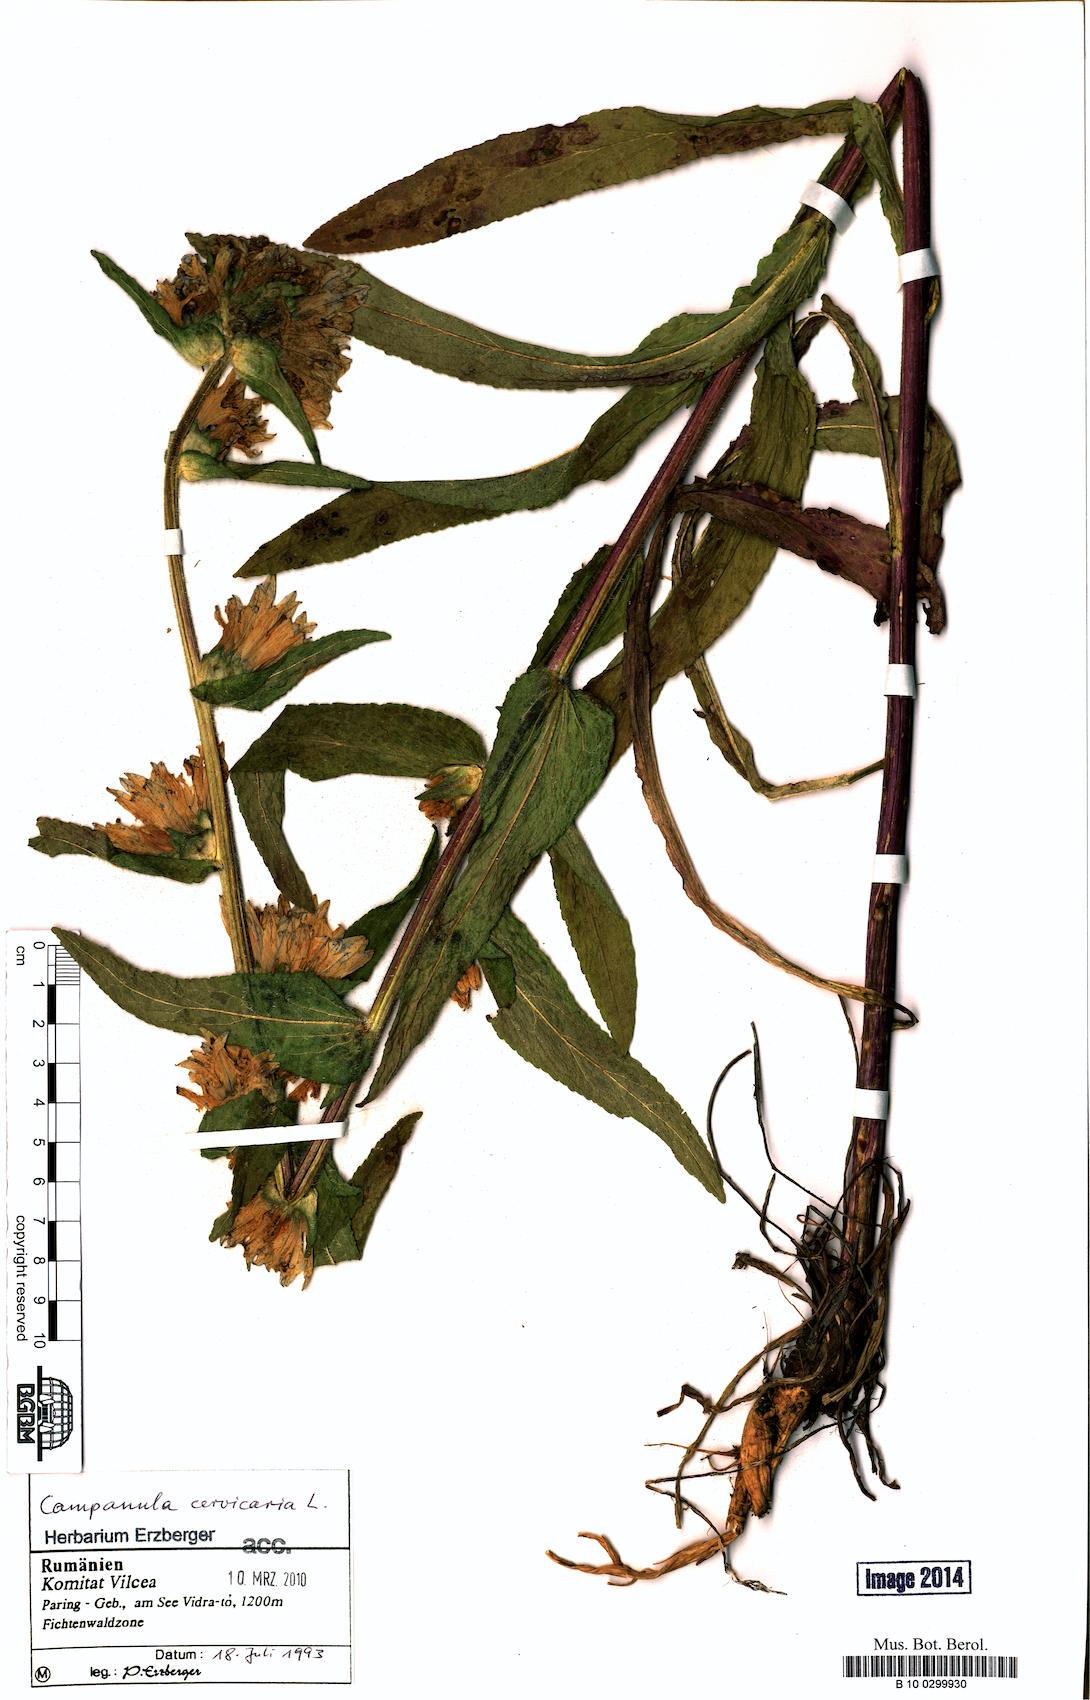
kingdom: Plantae
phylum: Tracheophyta
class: Magnoliopsida
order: Asterales
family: Campanulaceae
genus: Campanula
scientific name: Campanula cervicaria
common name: Bristly bellflower
